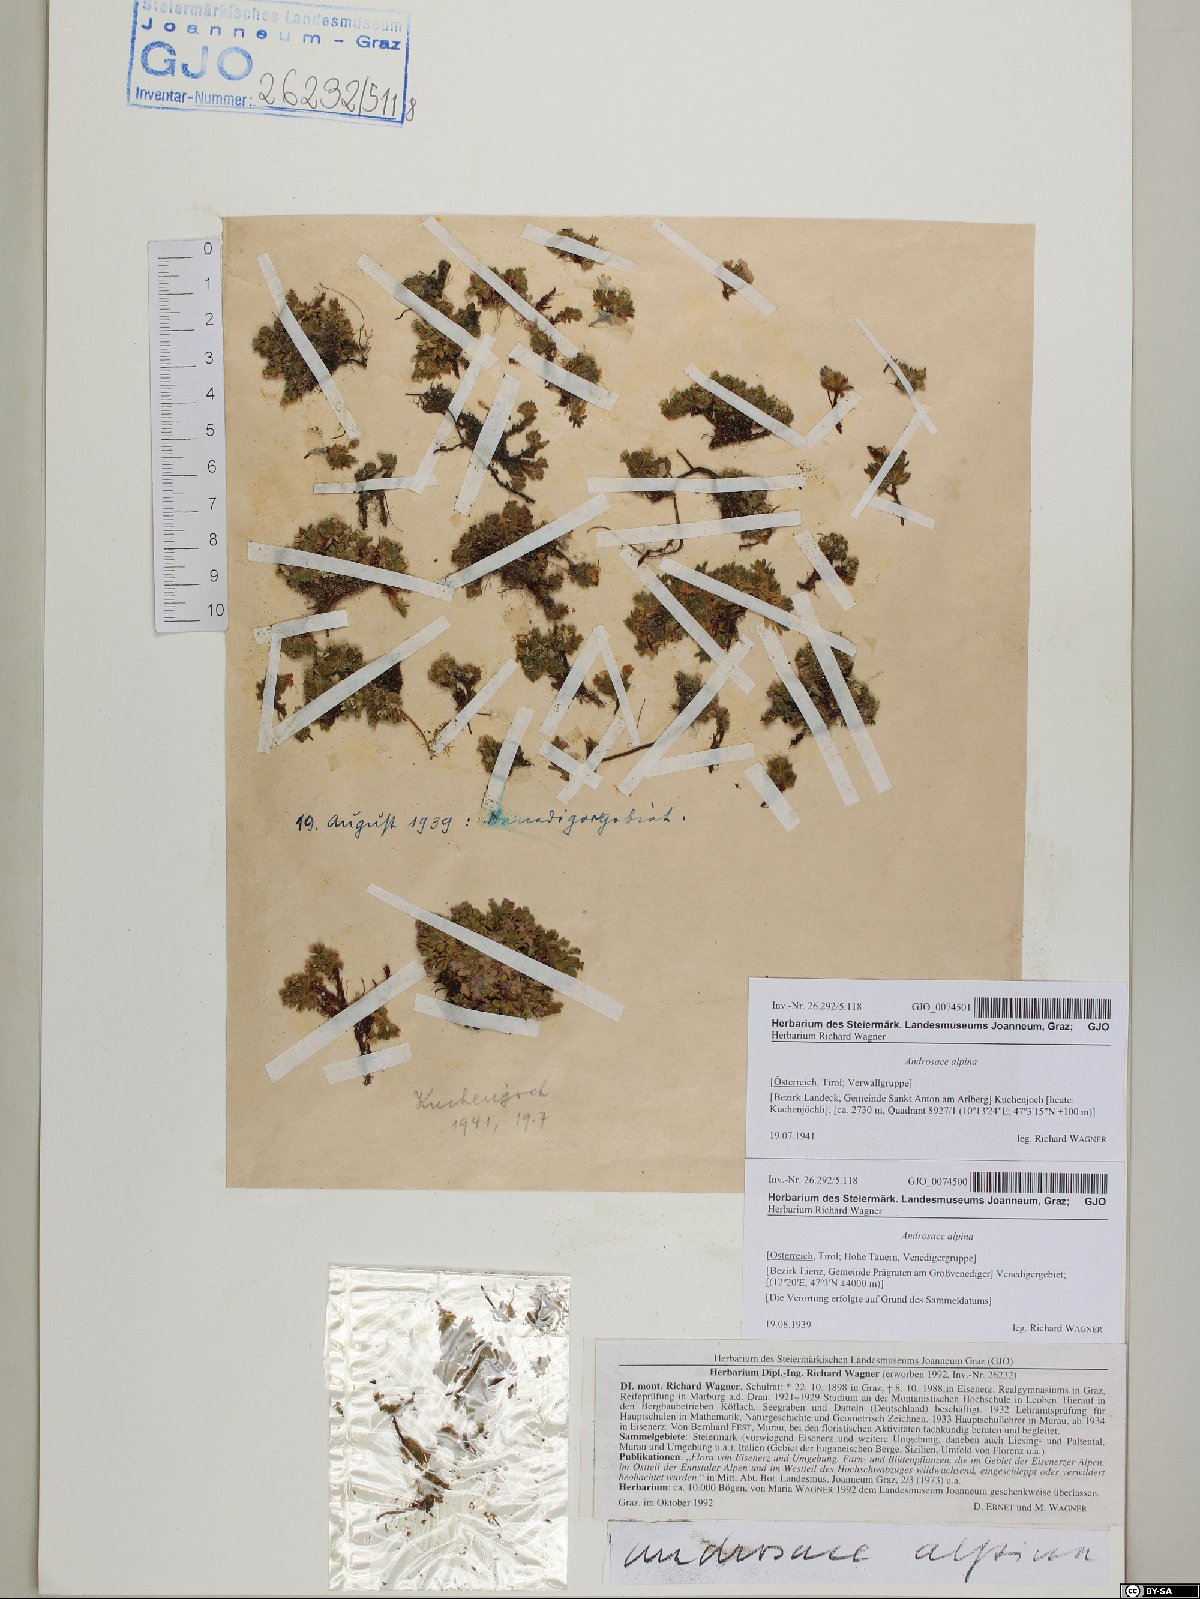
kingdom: Plantae
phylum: Tracheophyta
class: Magnoliopsida
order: Ericales
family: Primulaceae
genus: Androsace
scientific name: Androsace alpina
